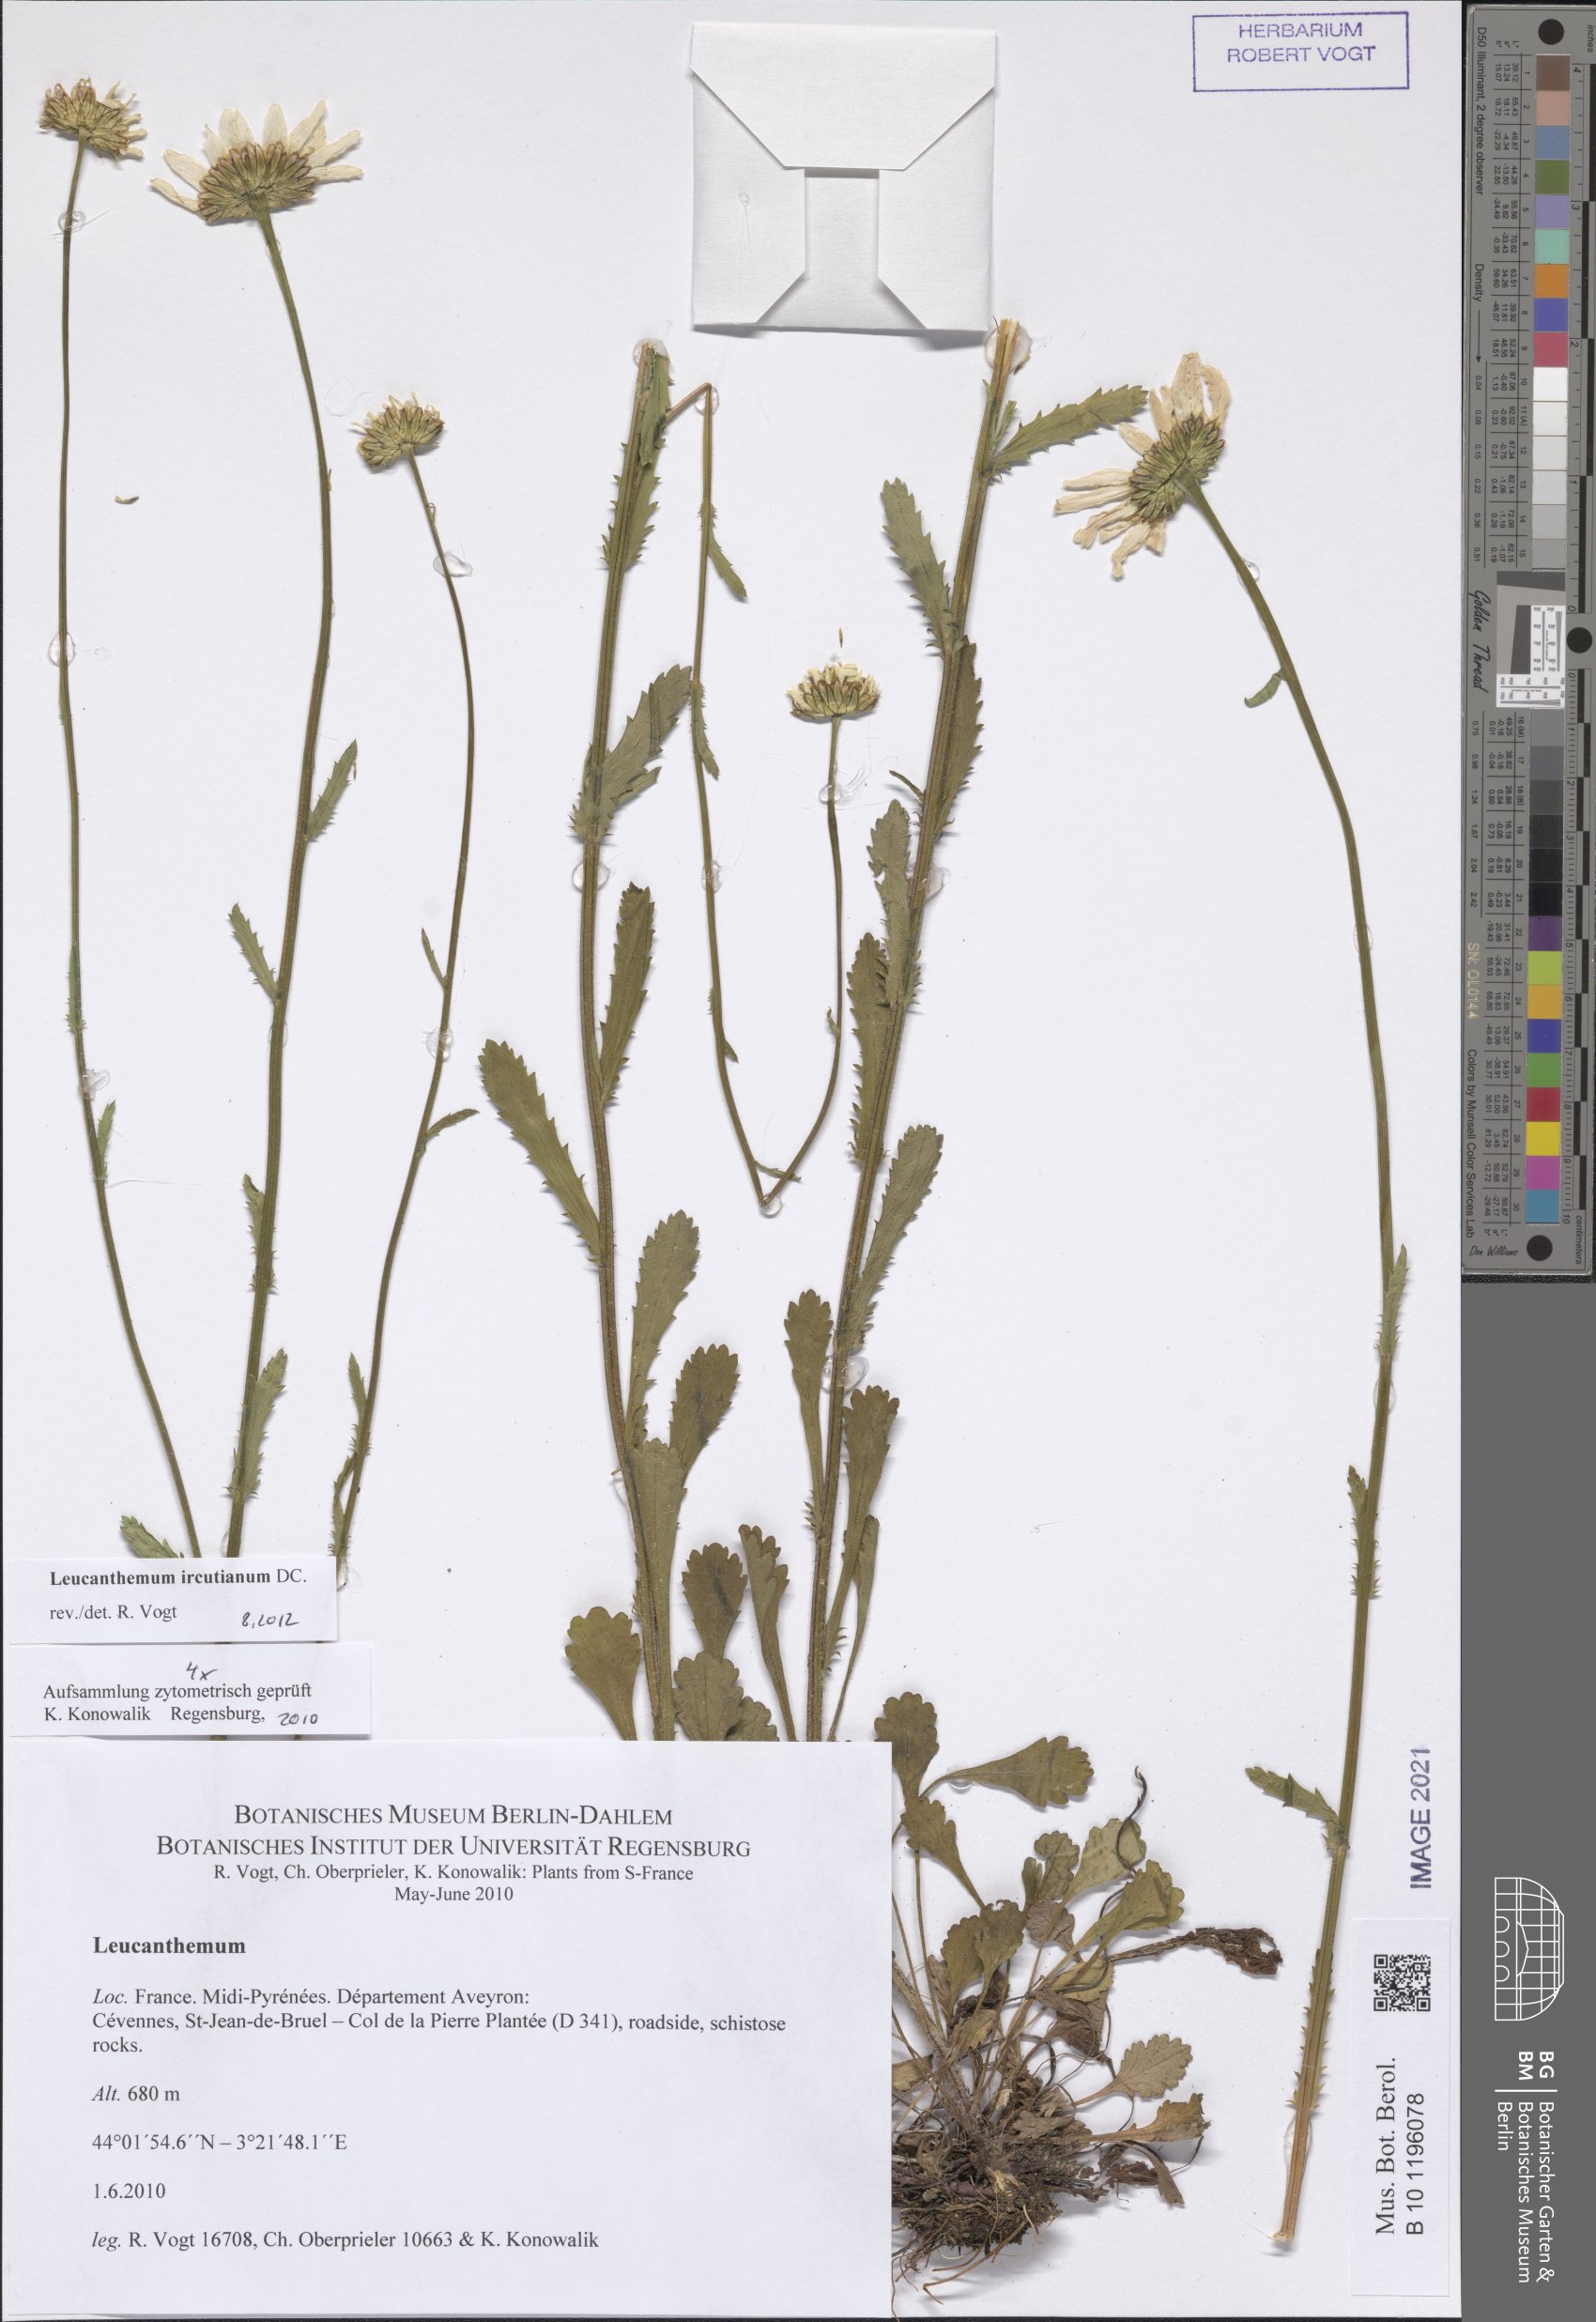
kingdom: Plantae
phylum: Tracheophyta
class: Magnoliopsida
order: Asterales
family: Asteraceae
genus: Leucanthemum
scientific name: Leucanthemum ircutianum
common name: Daisy
